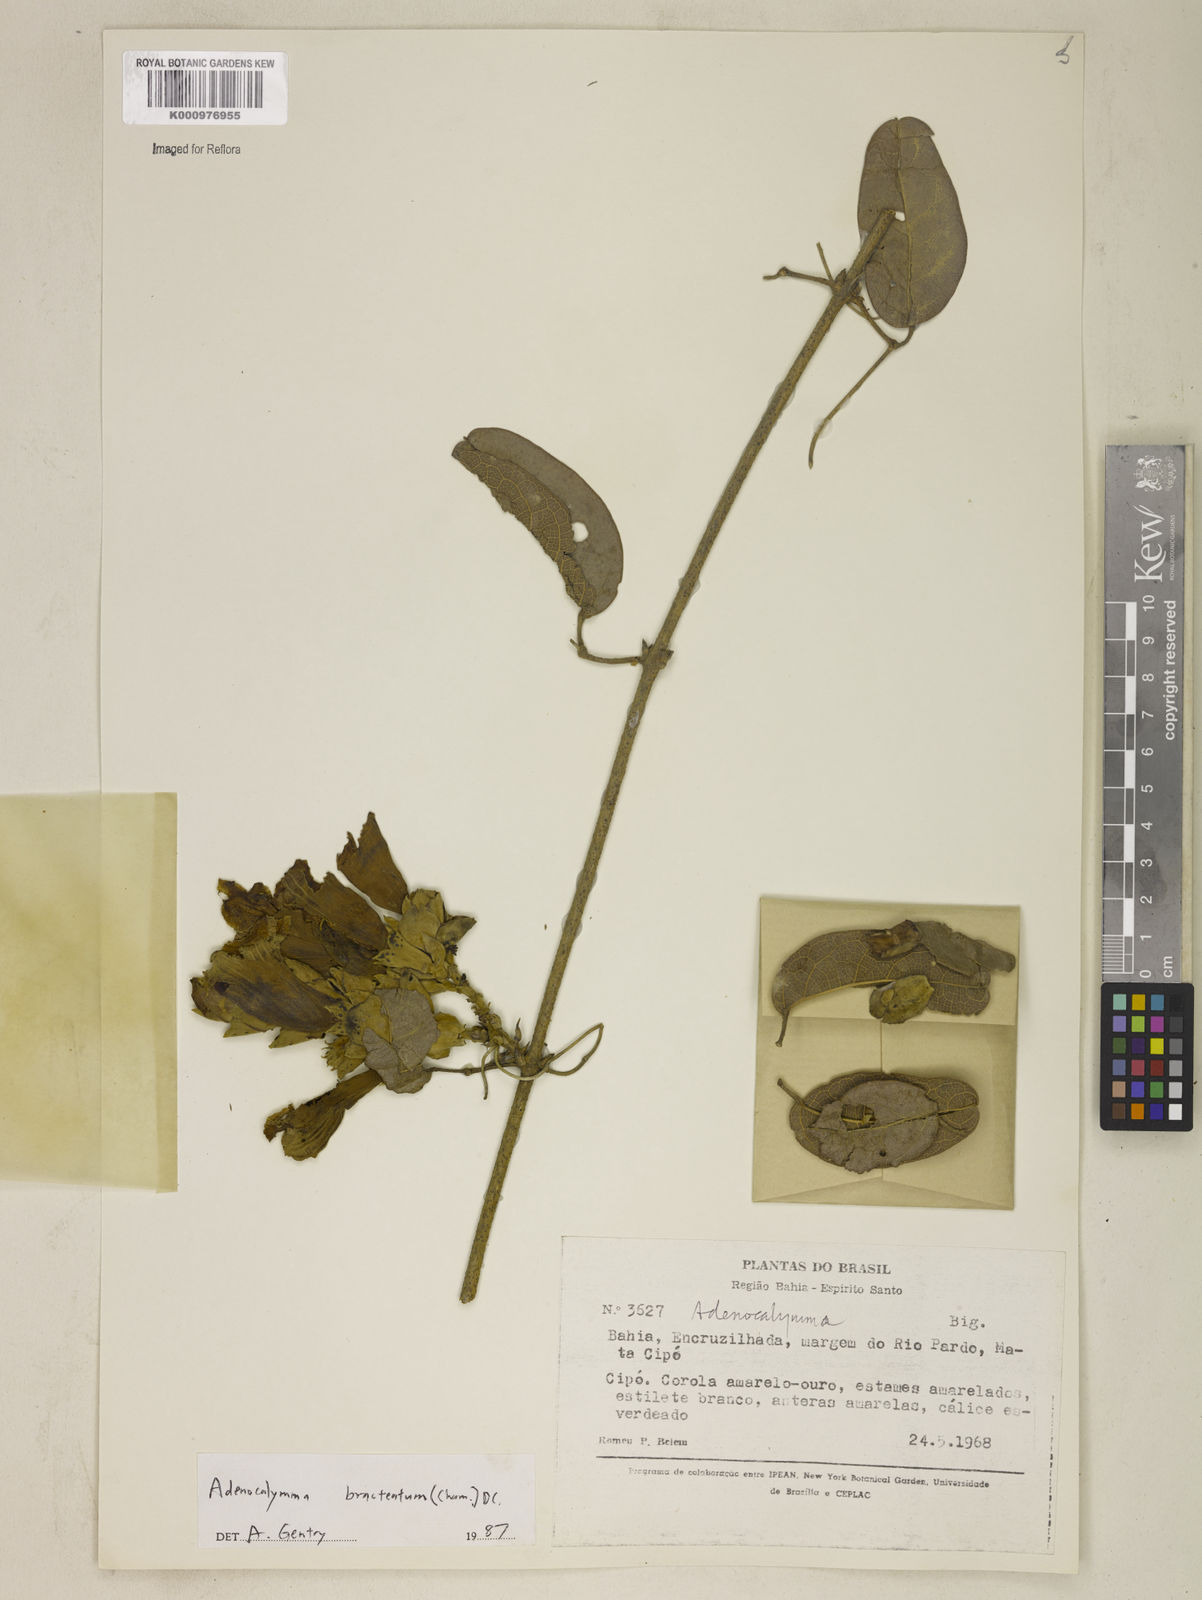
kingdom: Plantae
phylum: Tracheophyta
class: Magnoliopsida
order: Lamiales
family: Bignoniaceae
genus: Adenocalymma
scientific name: Adenocalymma bracteatum
